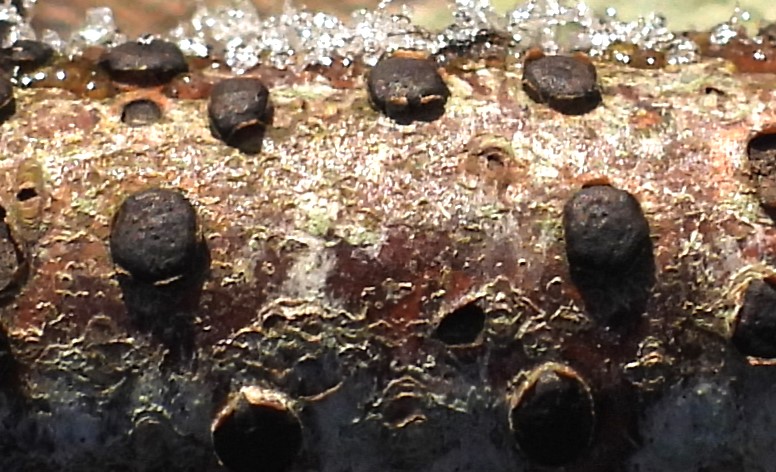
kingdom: Fungi
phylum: Ascomycota
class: Sordariomycetes
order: Xylariales
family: Diatrypaceae
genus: Diatrype
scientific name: Diatrype disciformis
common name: kant-kulskorpe
